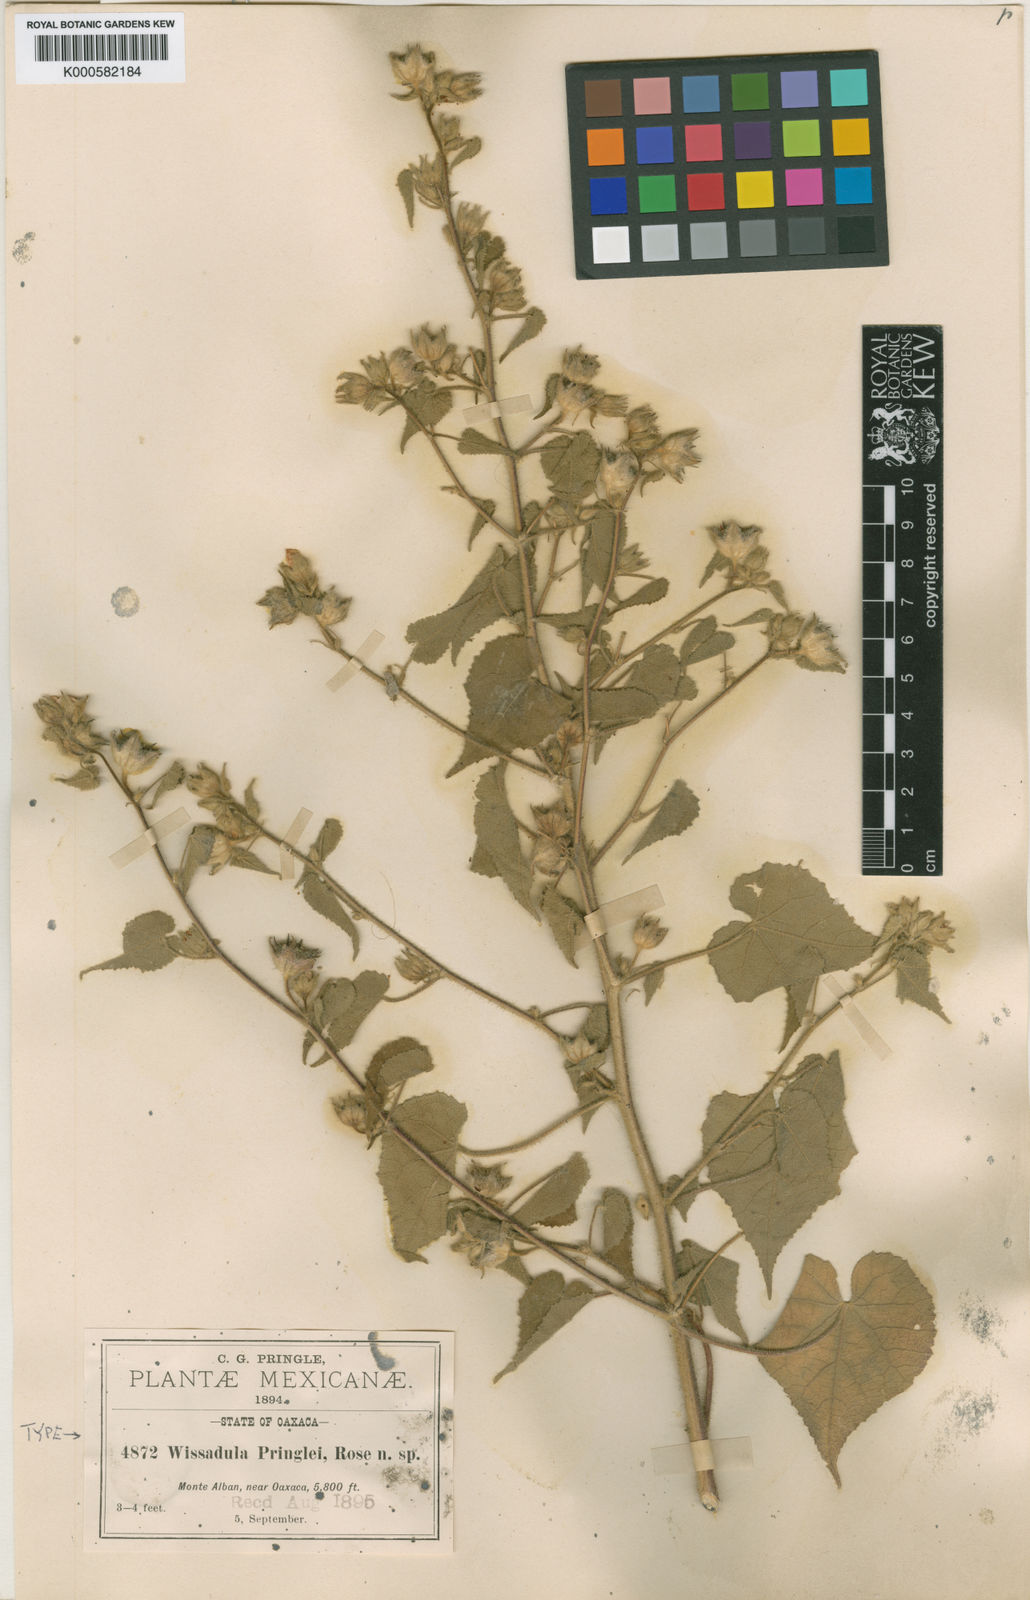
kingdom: Plantae
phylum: Tracheophyta
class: Magnoliopsida
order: Malvales
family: Malvaceae
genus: Allowissadula
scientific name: Allowissadula pringlei
